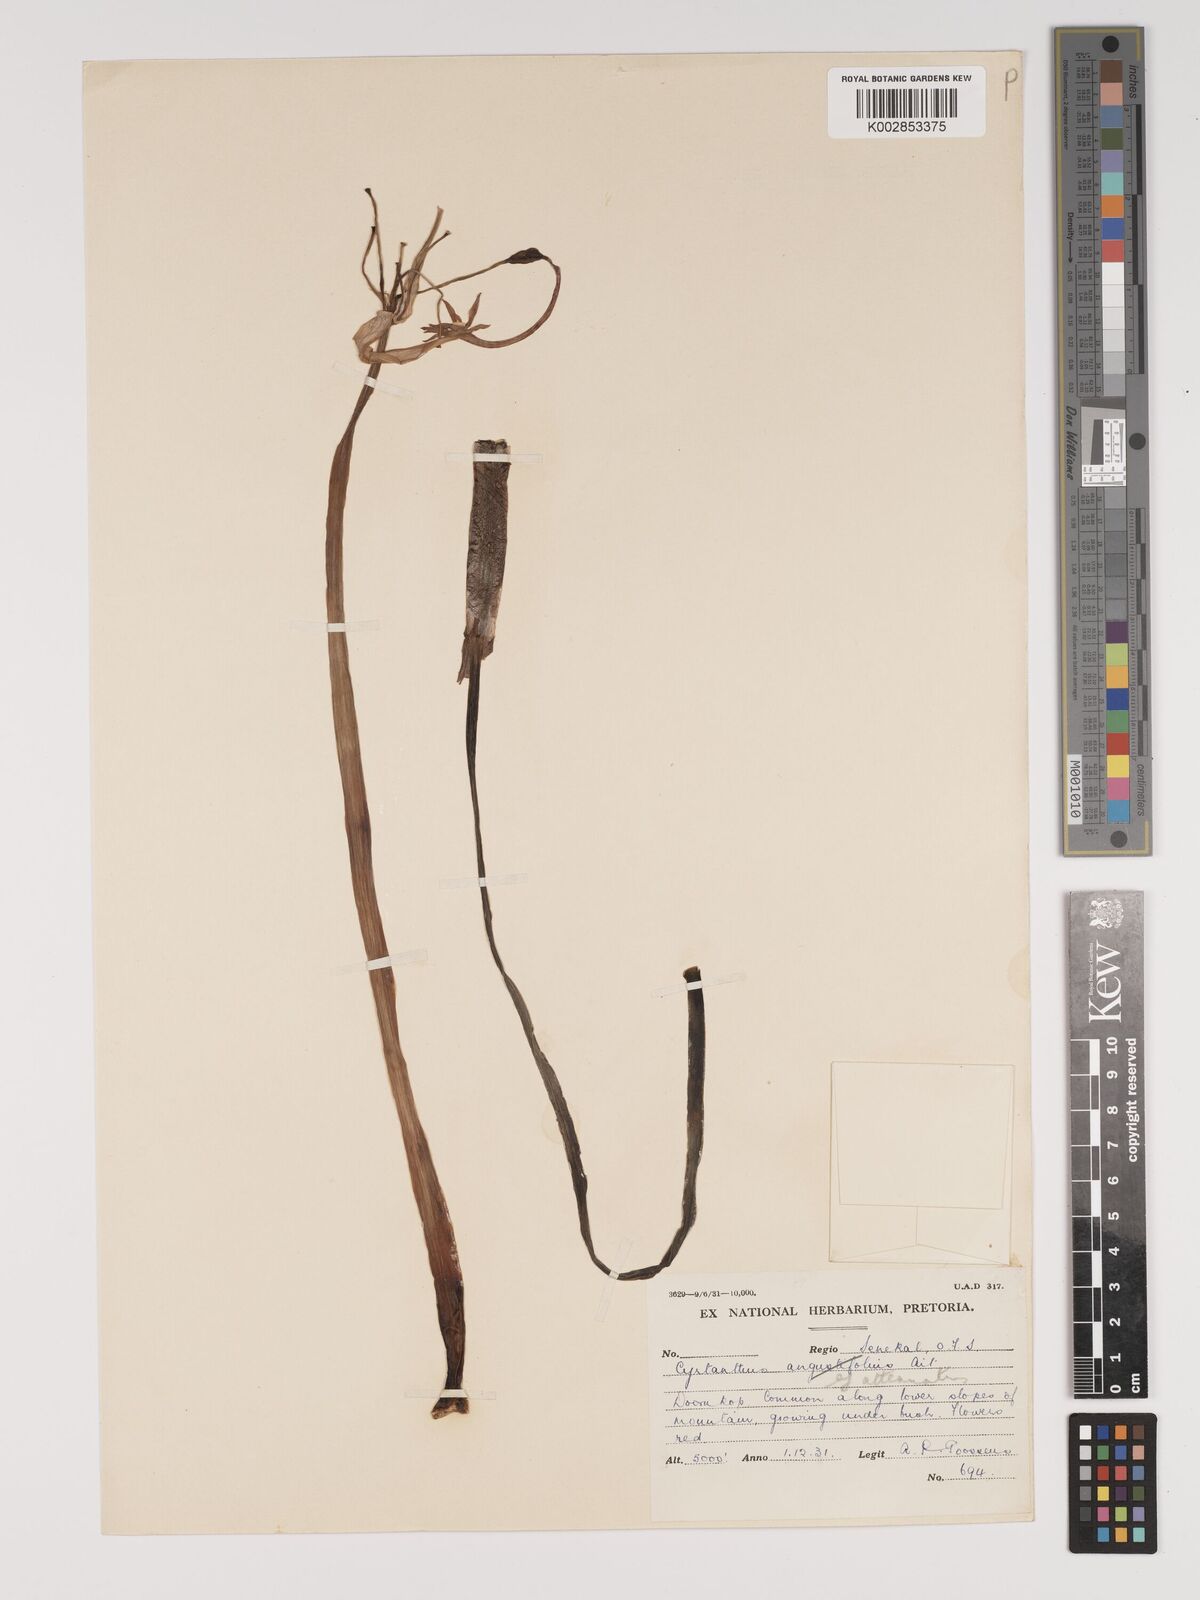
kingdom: Plantae
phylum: Tracheophyta
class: Liliopsida
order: Asparagales
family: Amaryllidaceae
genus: Cyrtanthus
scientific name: Cyrtanthus attenuatus
